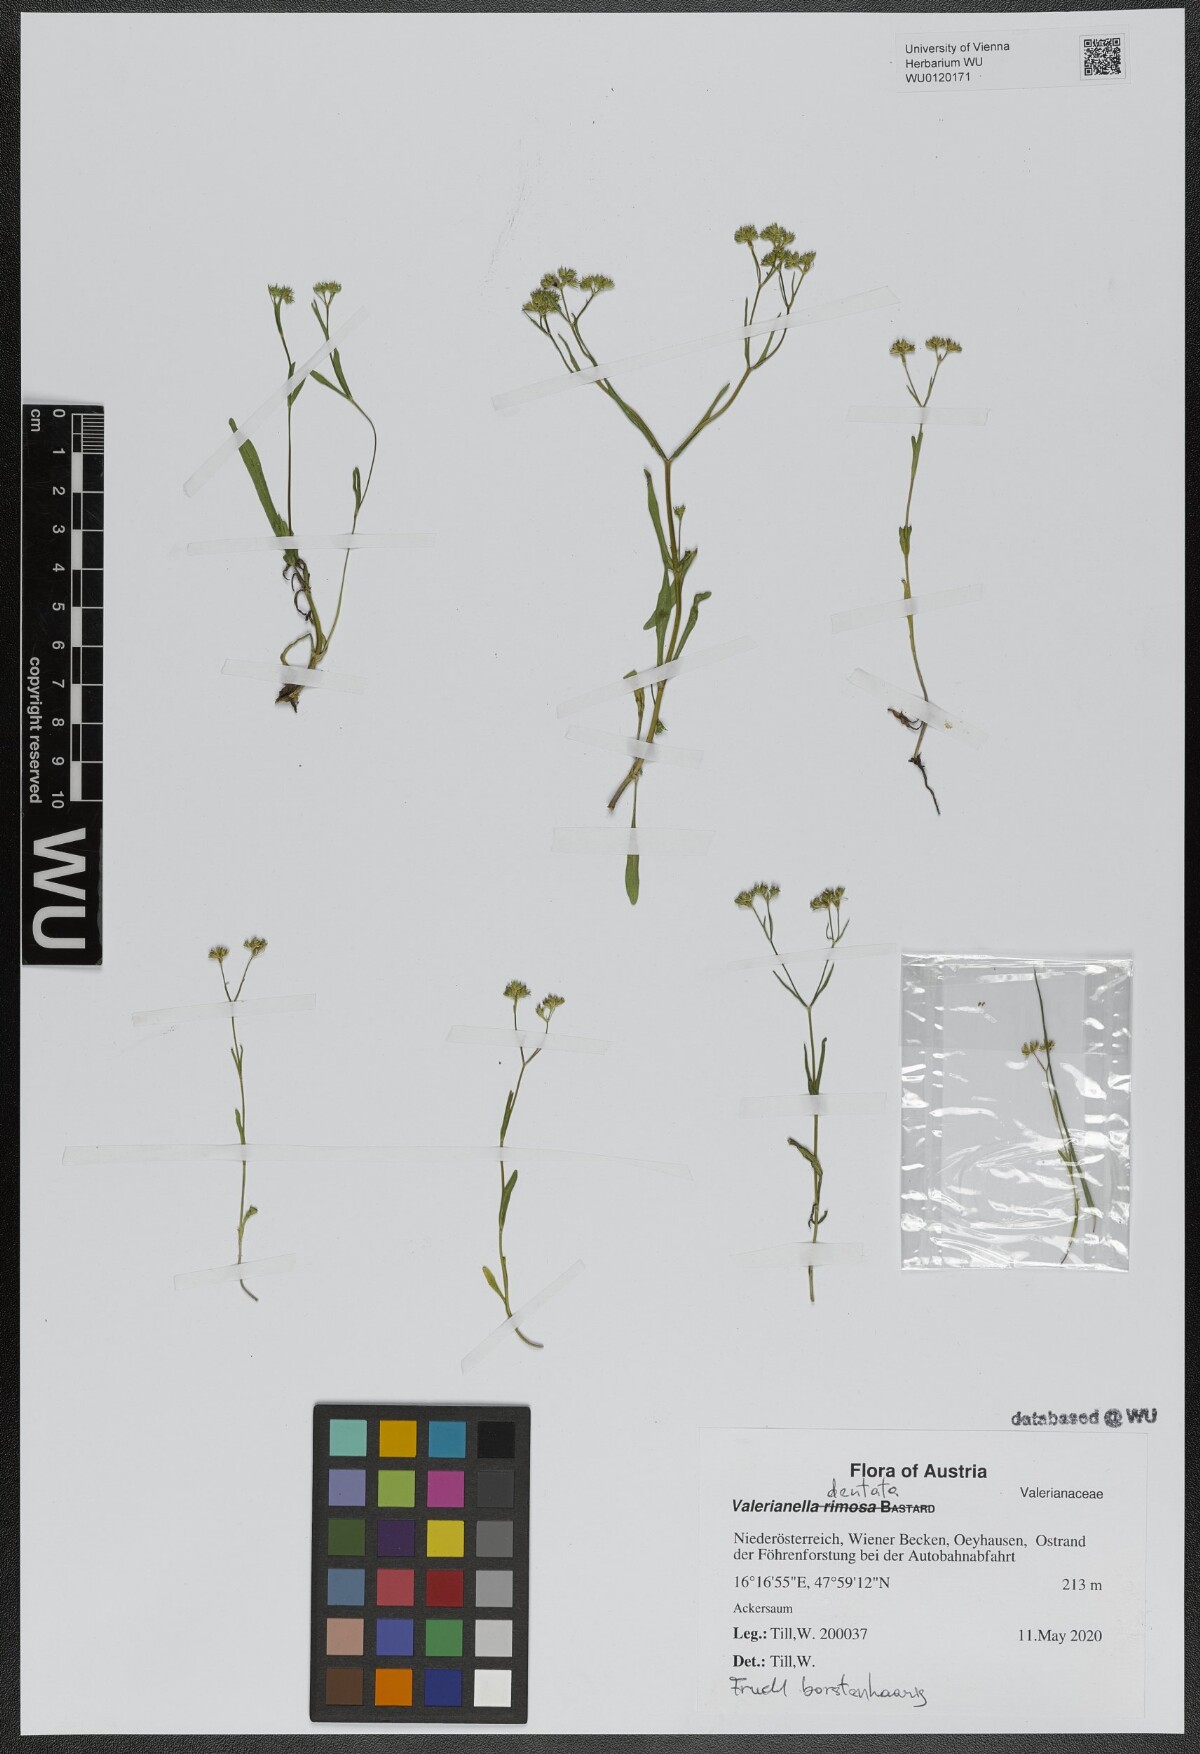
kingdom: Plantae
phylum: Tracheophyta
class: Magnoliopsida
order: Dipsacales
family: Caprifoliaceae
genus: Valerianella
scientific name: Valerianella dentata
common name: Narrow-fruited cornsalad
